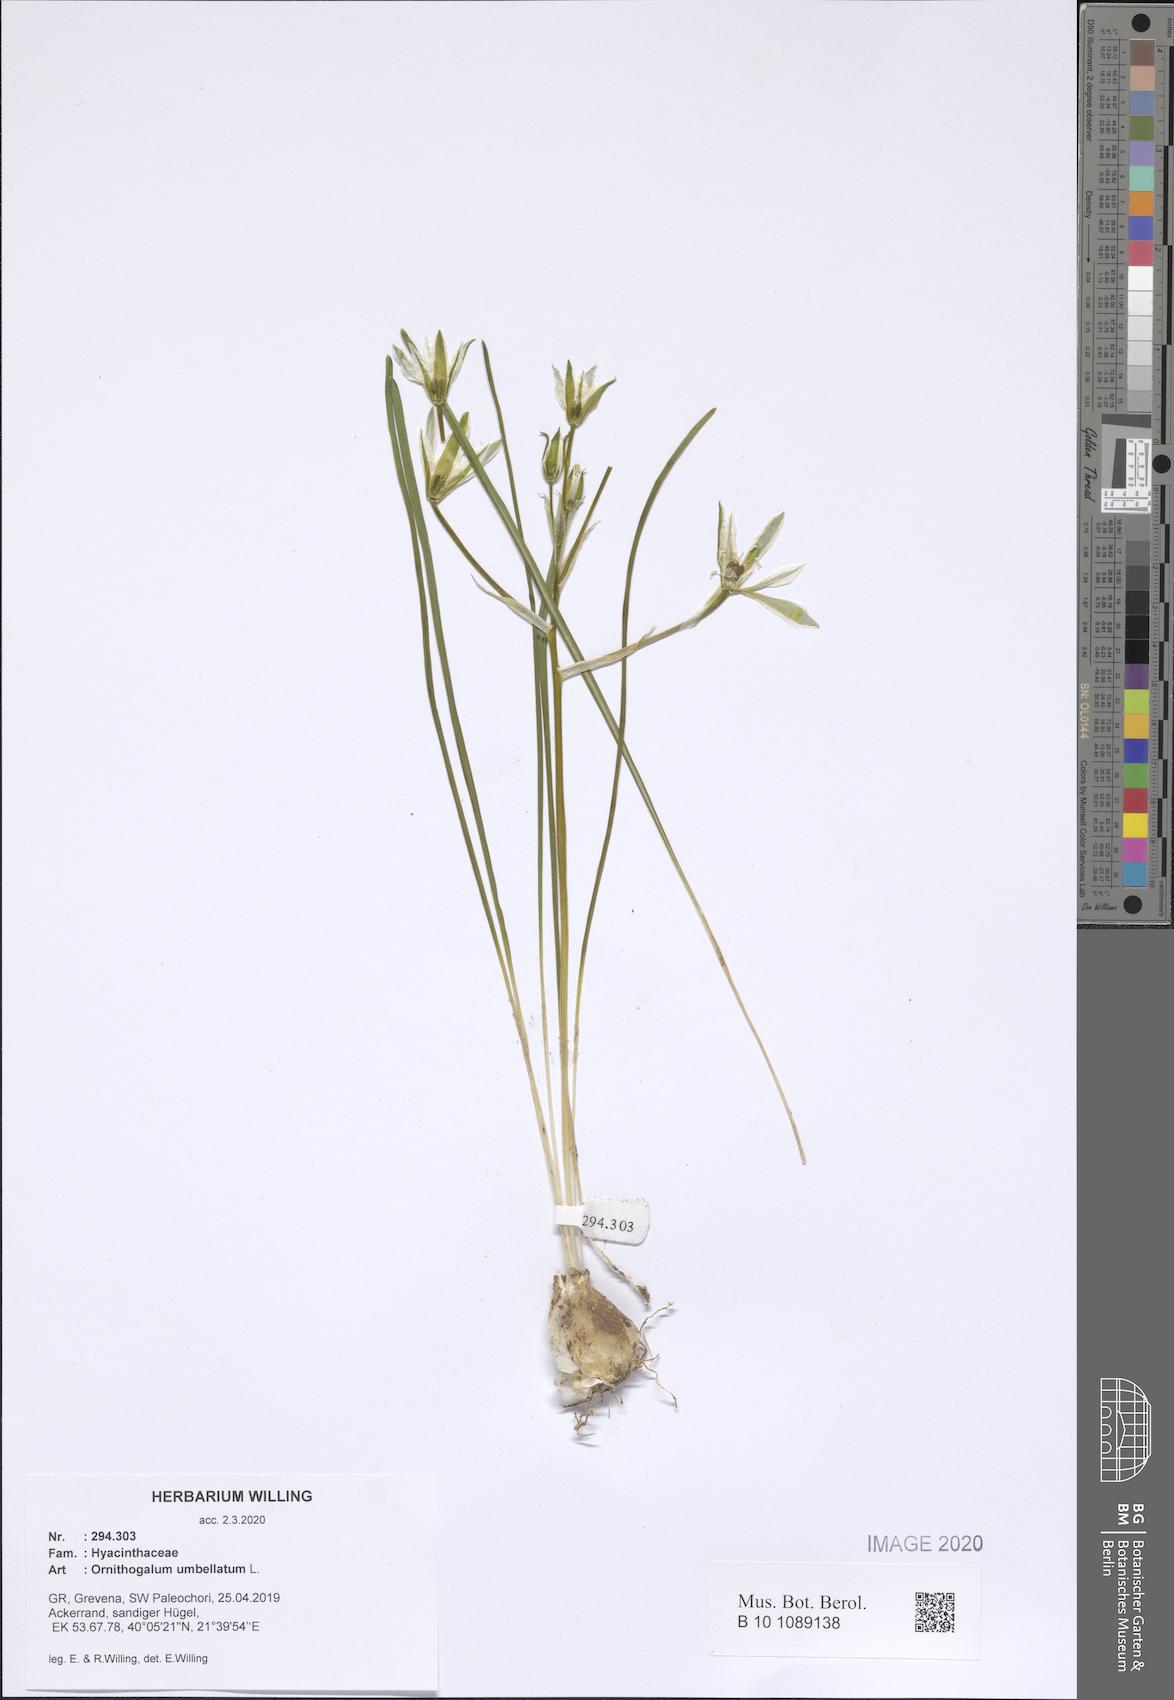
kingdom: Plantae
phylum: Tracheophyta
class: Liliopsida
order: Asparagales
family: Asparagaceae
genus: Ornithogalum
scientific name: Ornithogalum umbellatum
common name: Garden star-of-bethlehem
